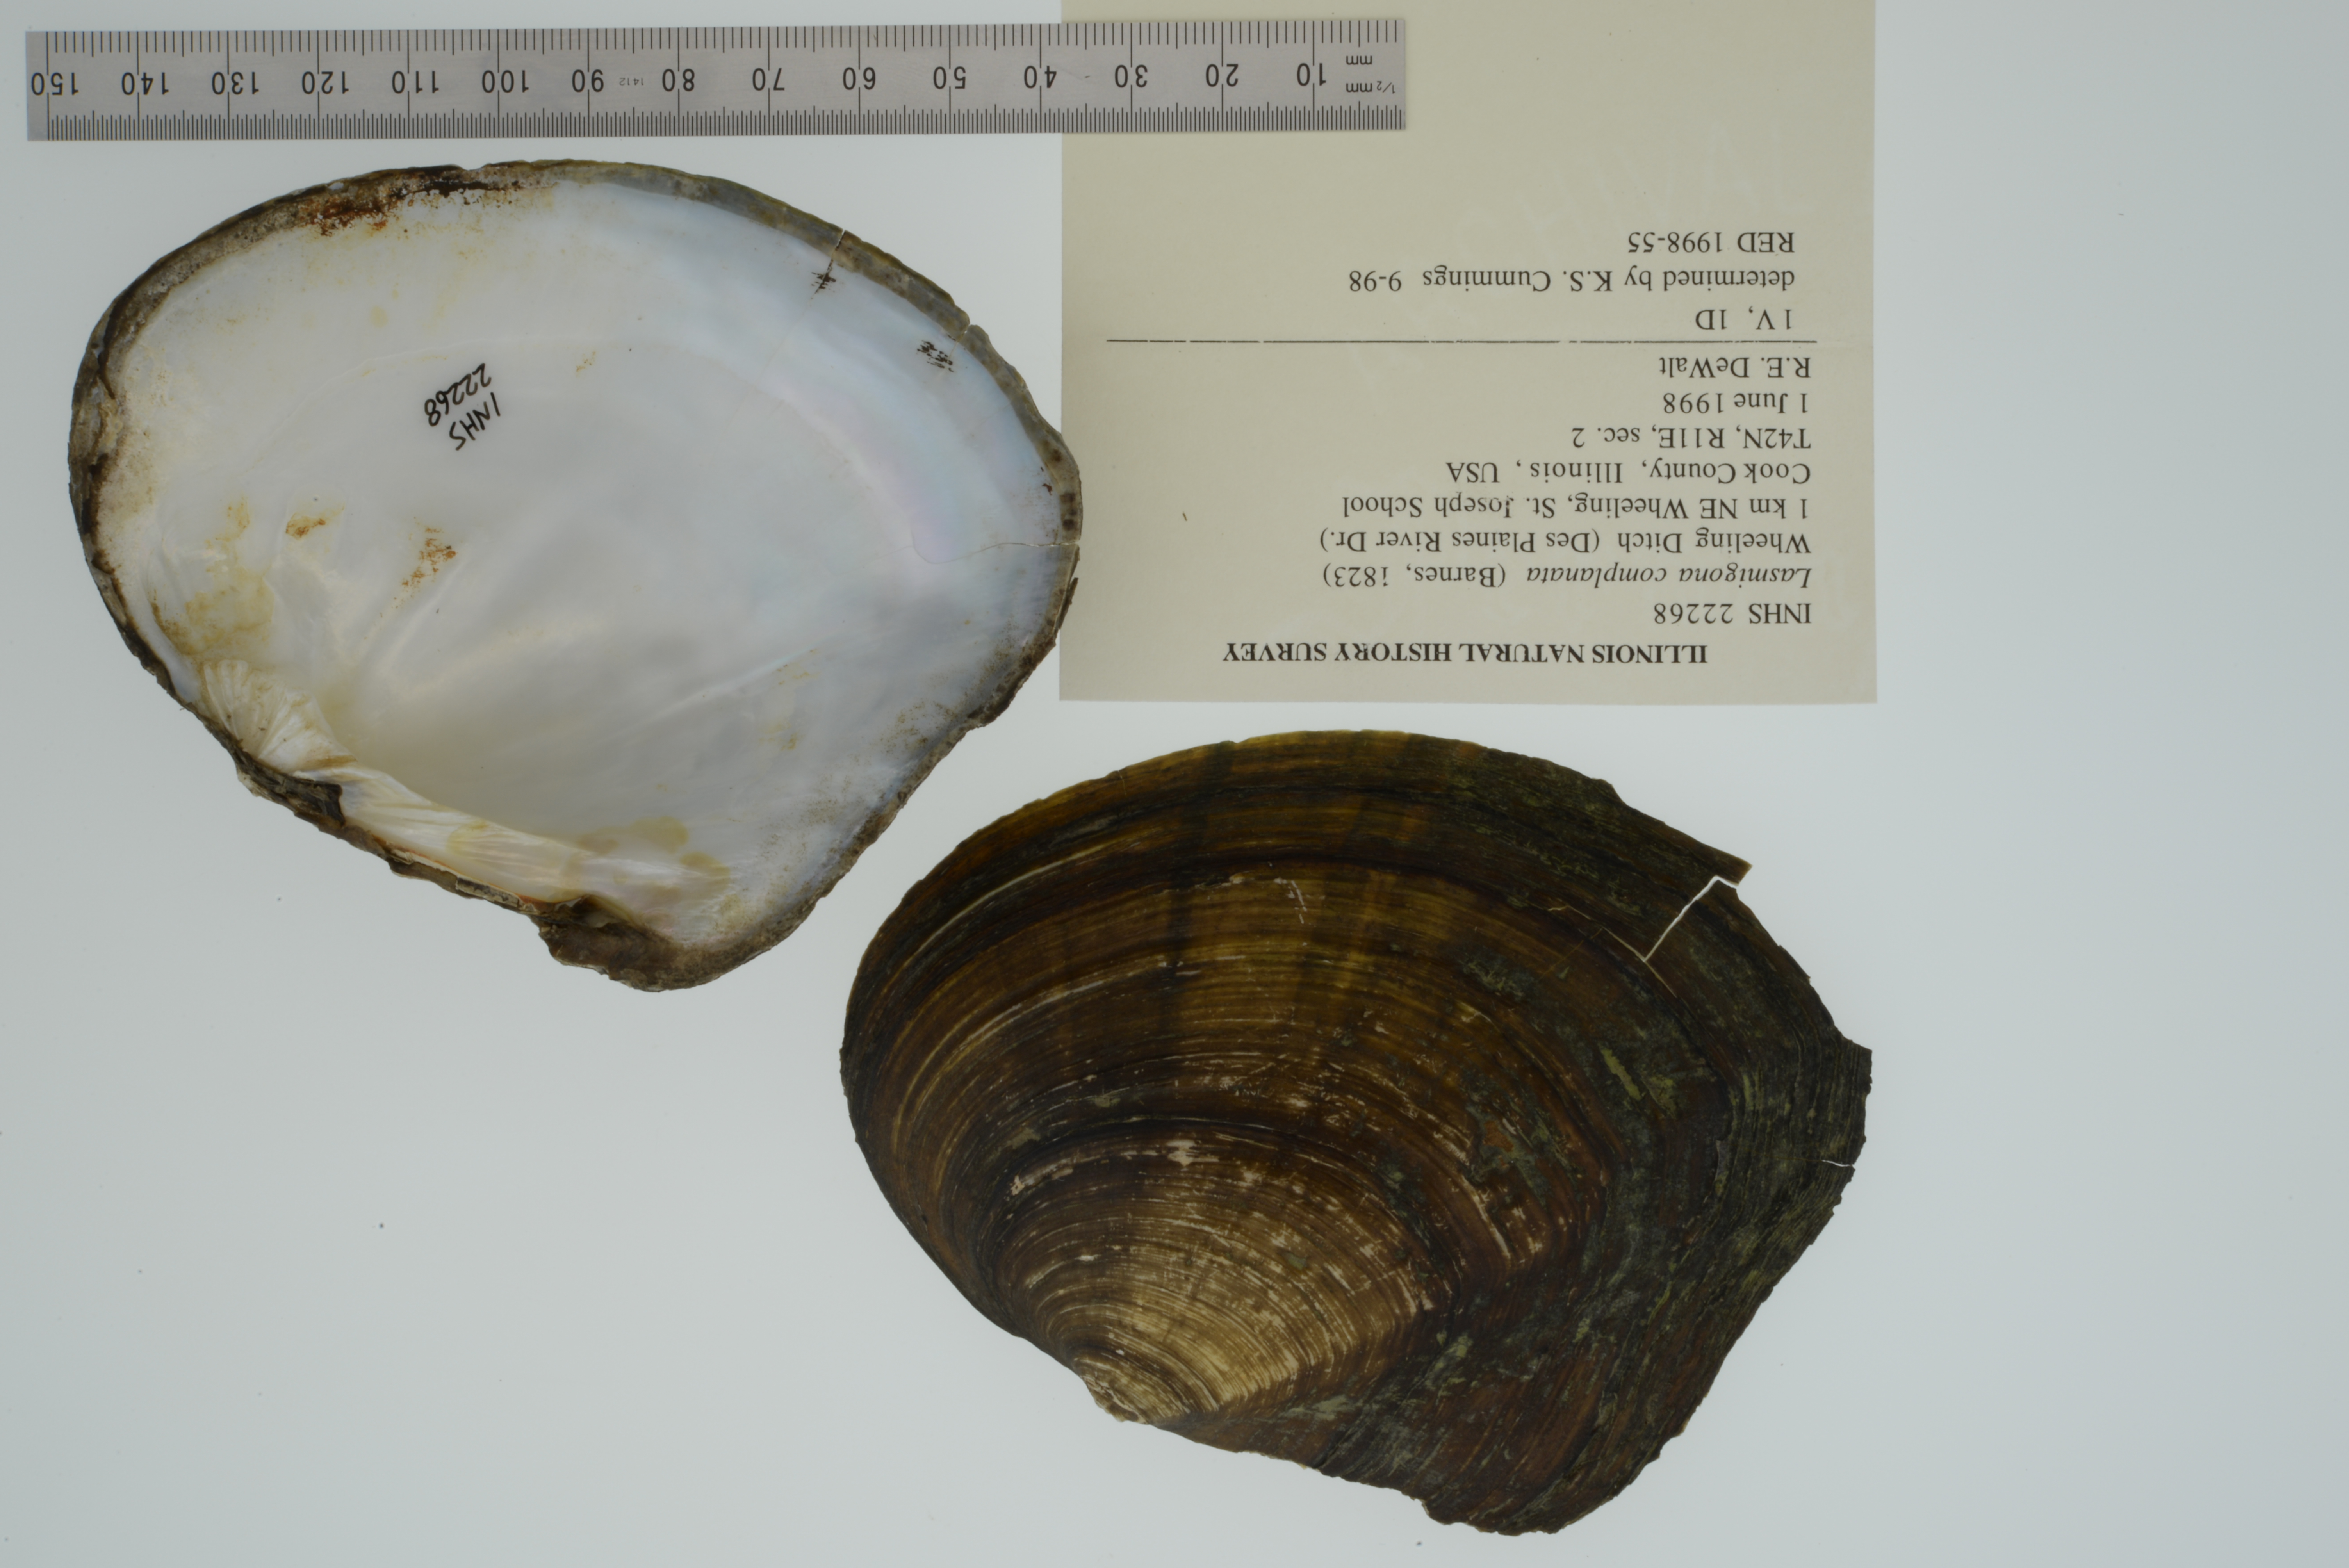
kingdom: Animalia
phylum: Mollusca
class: Bivalvia
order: Unionida
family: Unionidae
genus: Lasmigona
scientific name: Lasmigona complanata
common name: White heelsplitter
